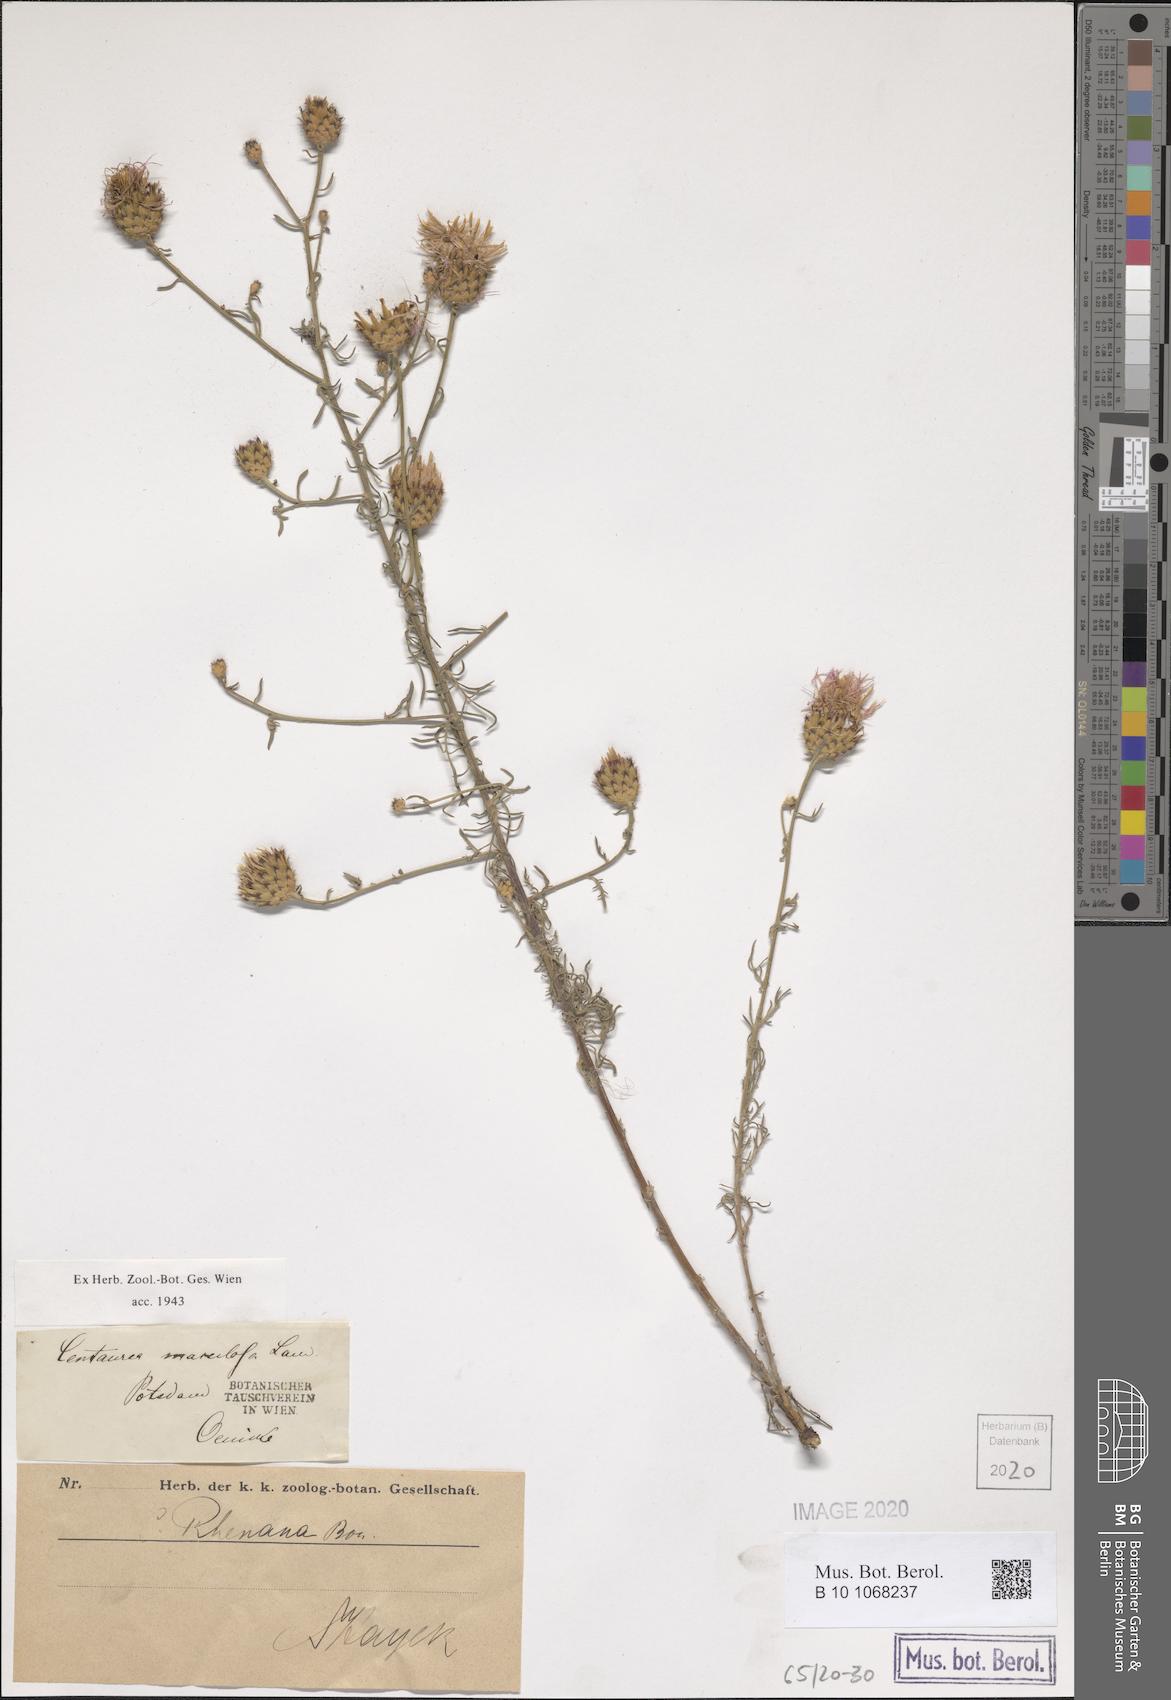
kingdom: Plantae
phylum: Tracheophyta
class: Magnoliopsida
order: Asterales
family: Asteraceae
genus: Centaurea
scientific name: Centaurea stoebe
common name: Spotted knapweed
